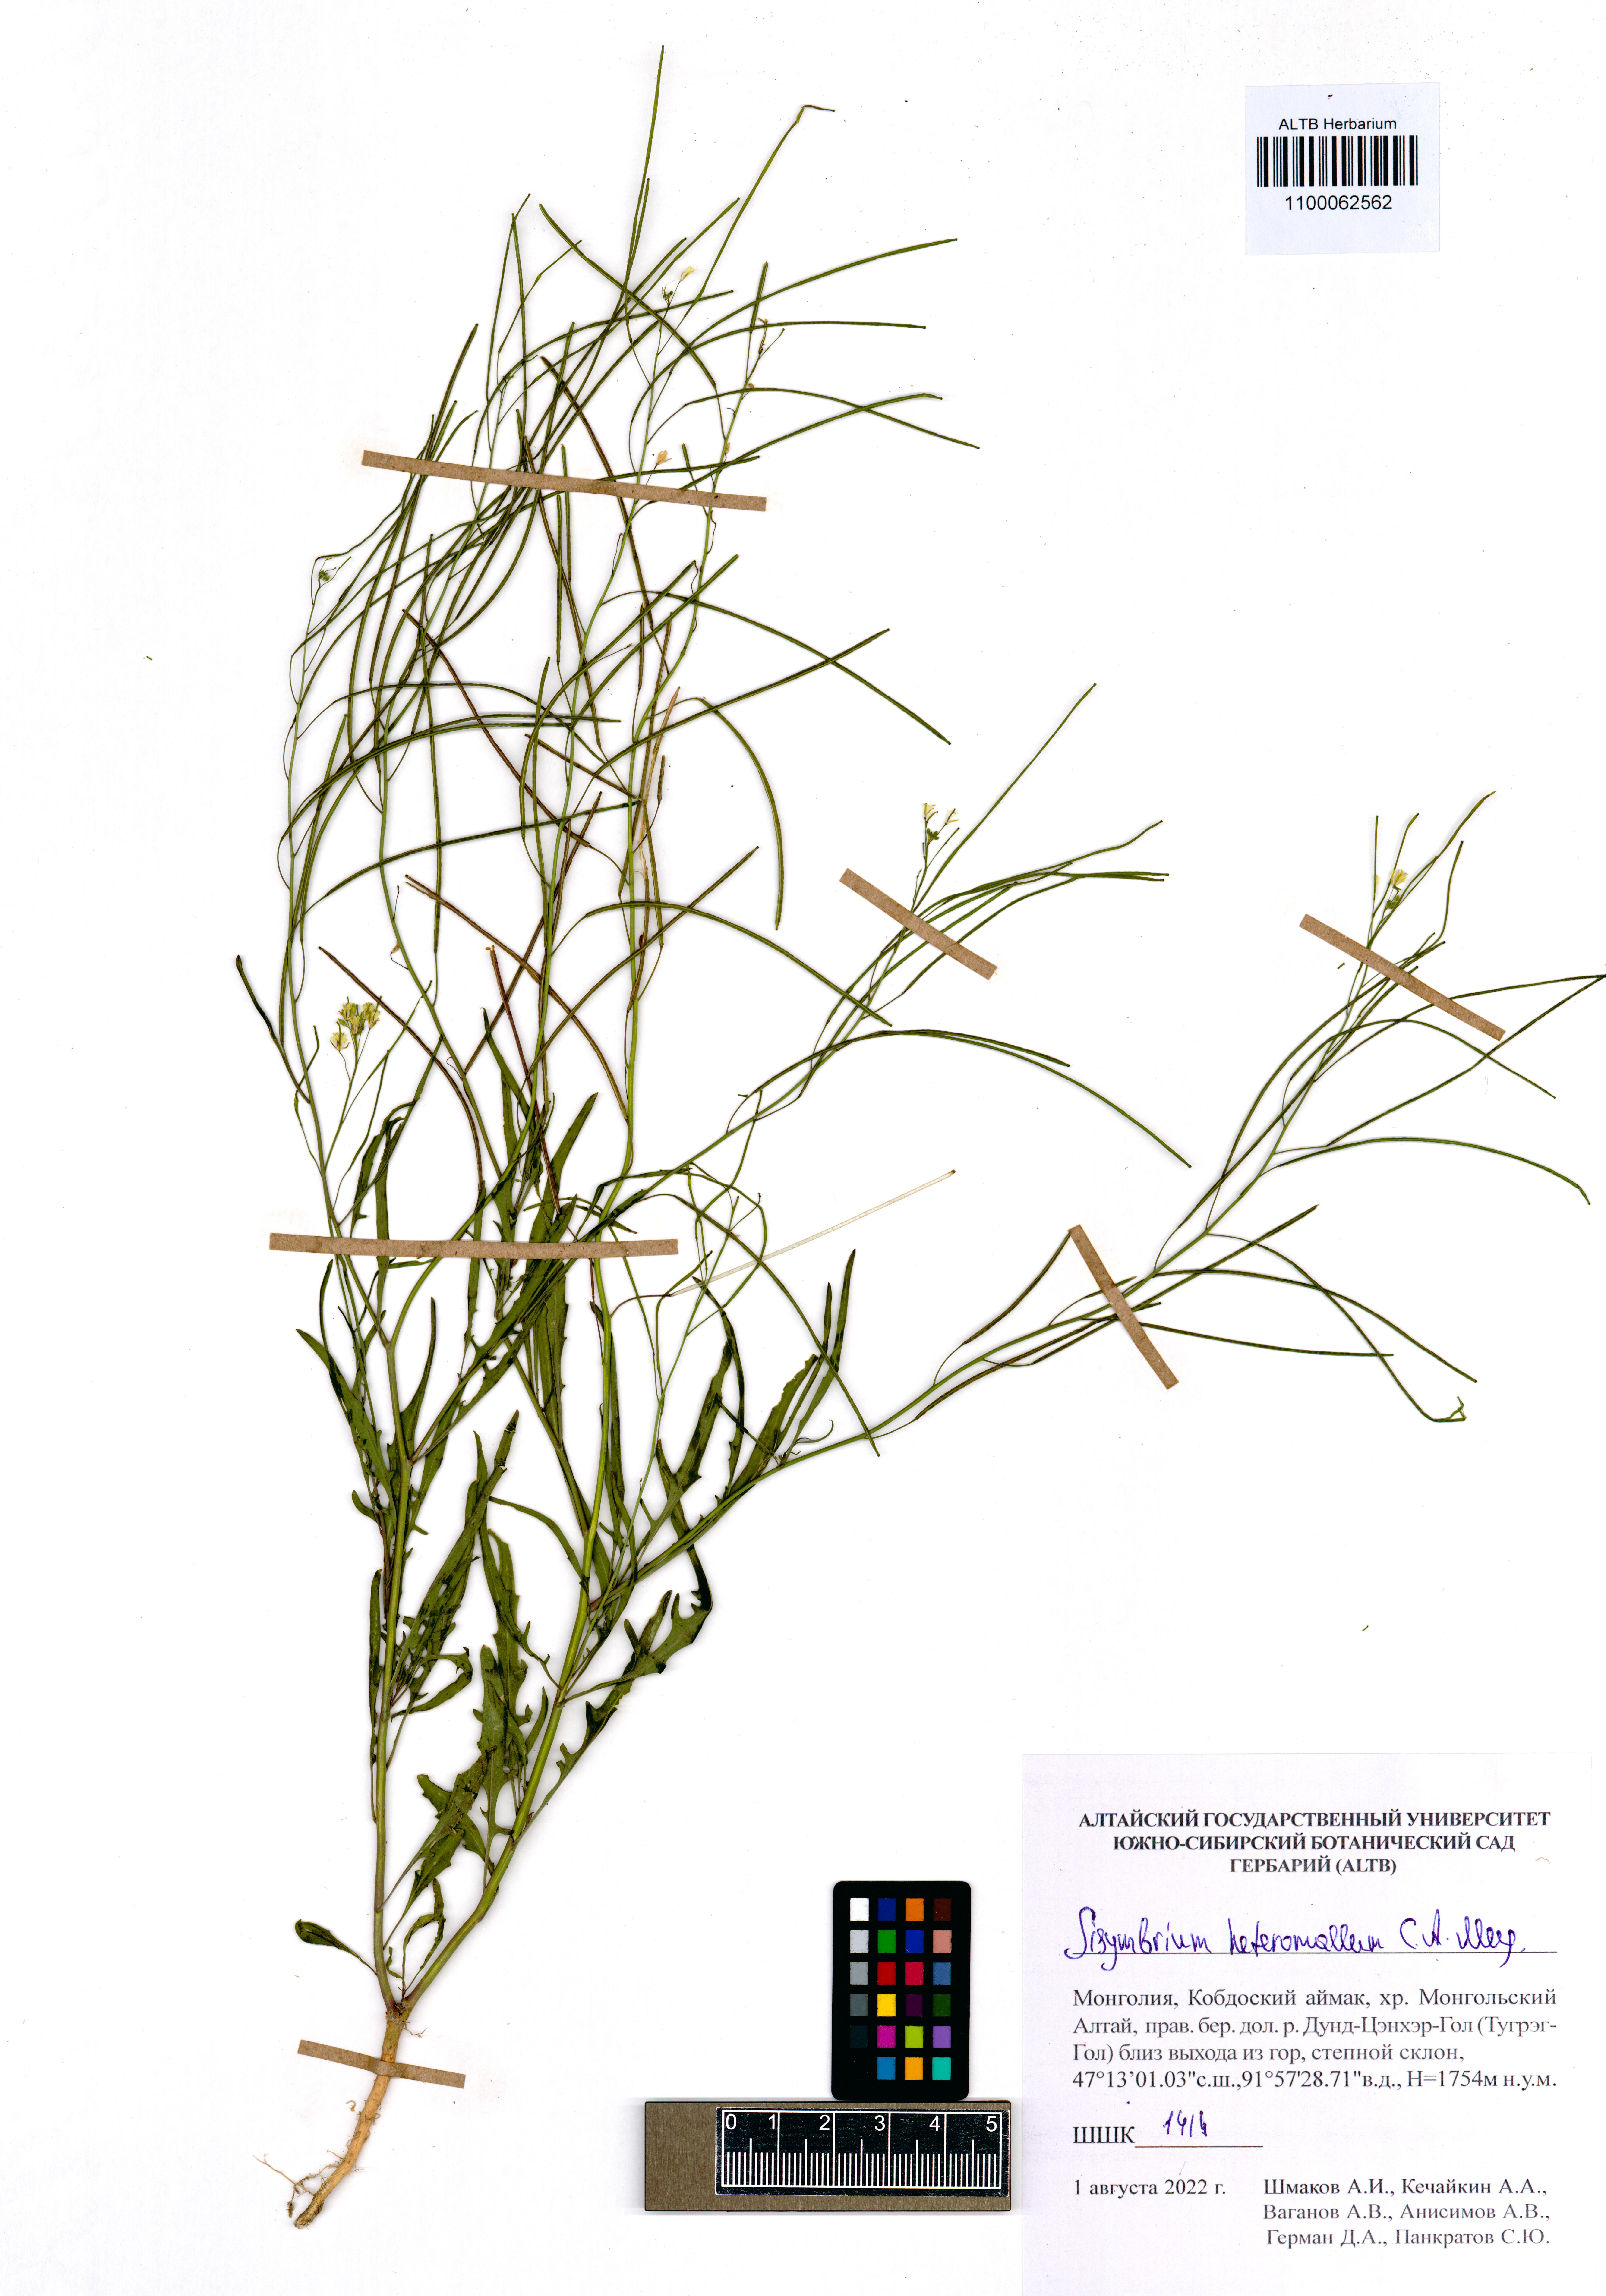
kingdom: Plantae
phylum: Tracheophyta
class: Magnoliopsida
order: Brassicales
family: Brassicaceae
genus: Sisymbrium
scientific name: Sisymbrium heteromallum
